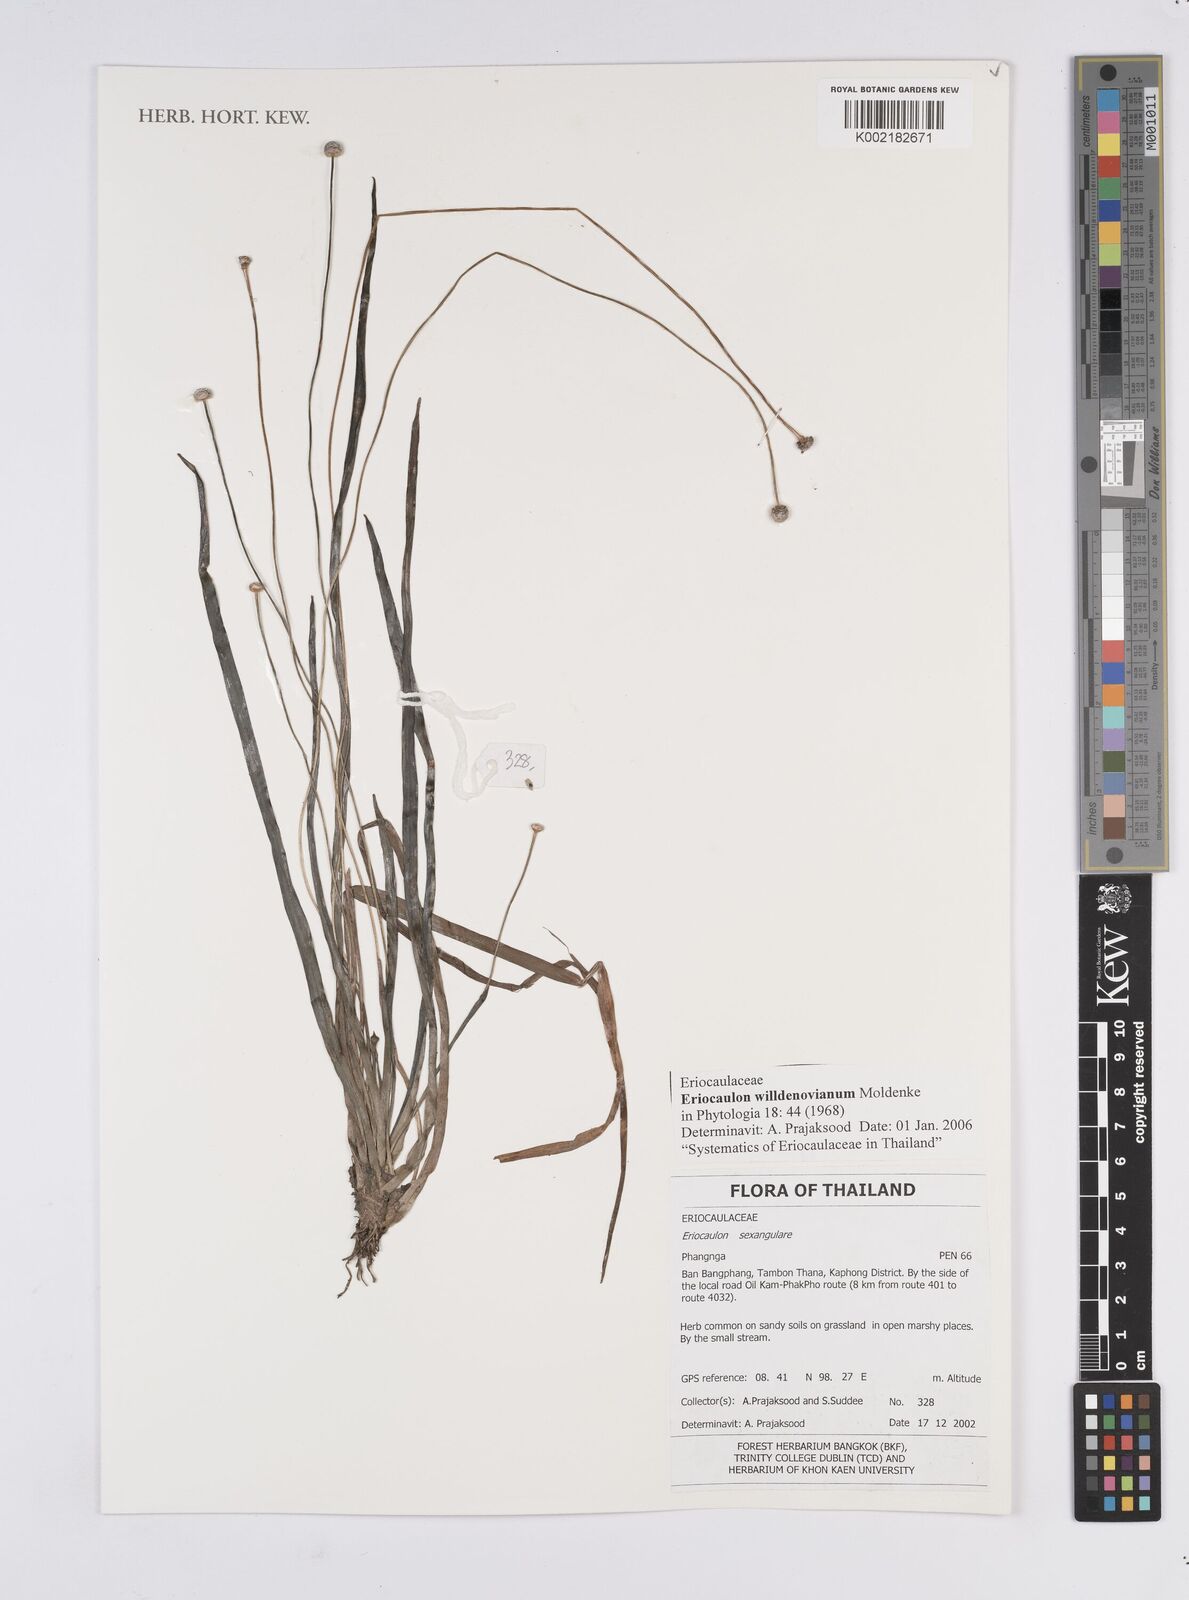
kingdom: Plantae
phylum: Tracheophyta
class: Liliopsida
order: Poales
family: Eriocaulaceae
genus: Eriocaulon
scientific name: Eriocaulon willdenovianum
